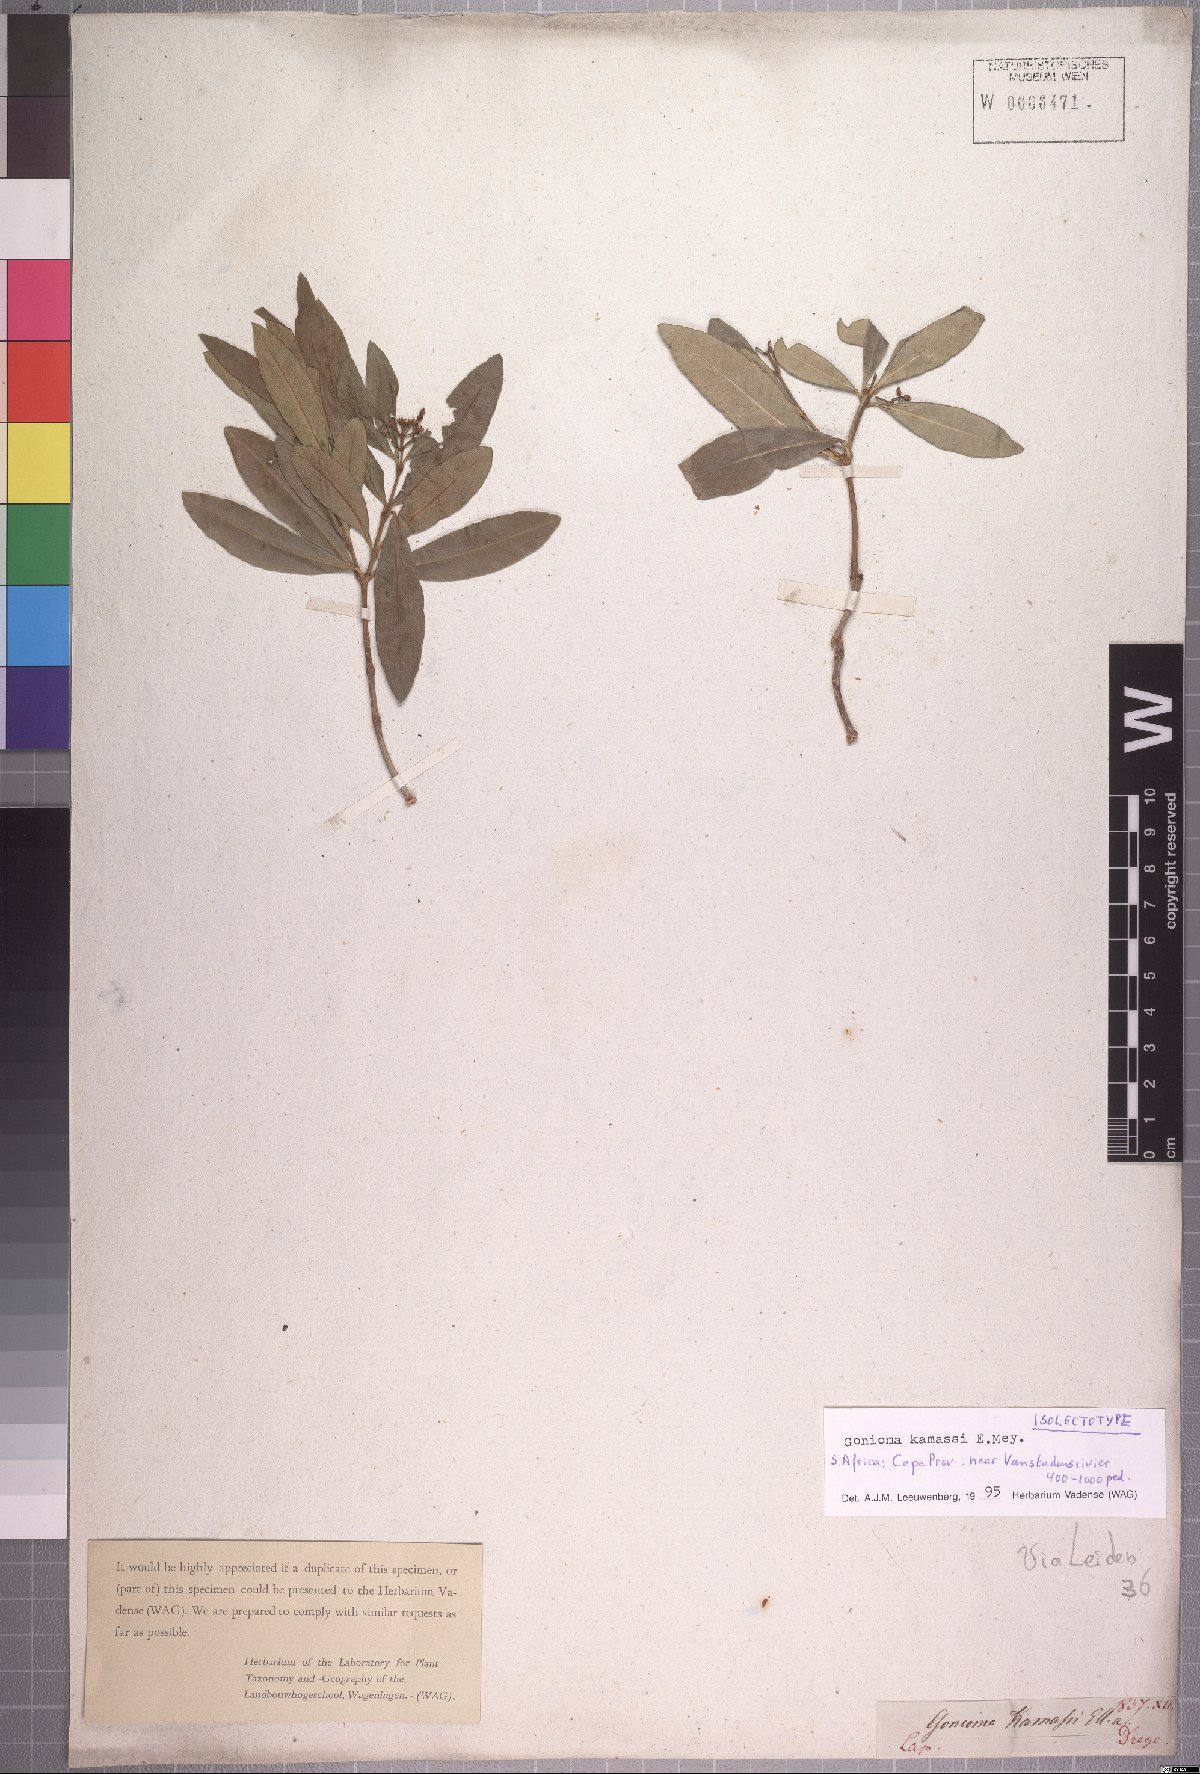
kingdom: Plantae
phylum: Tracheophyta
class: Magnoliopsida
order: Gentianales
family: Apocynaceae
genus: Gonioma
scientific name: Gonioma kamassi
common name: Kamassi
